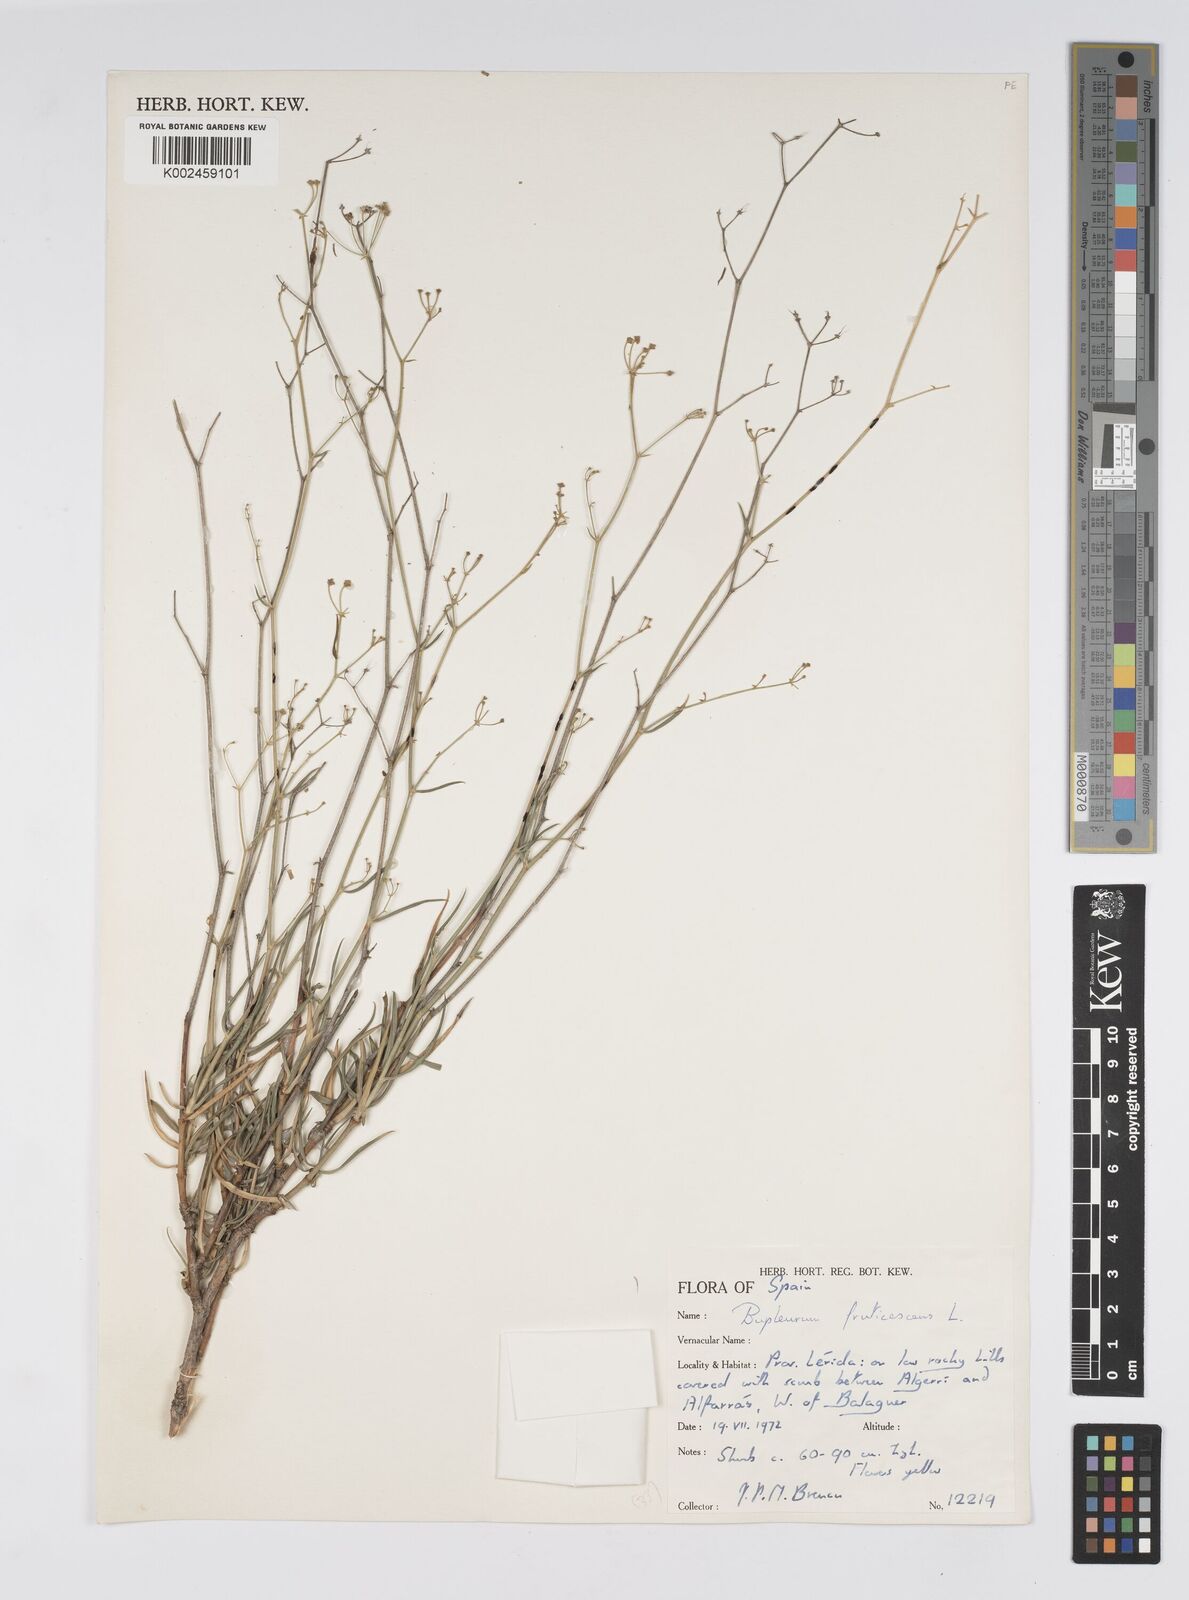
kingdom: Plantae
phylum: Tracheophyta
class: Magnoliopsida
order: Apiales
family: Apiaceae
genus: Bupleurum
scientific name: Bupleurum fruticescens
